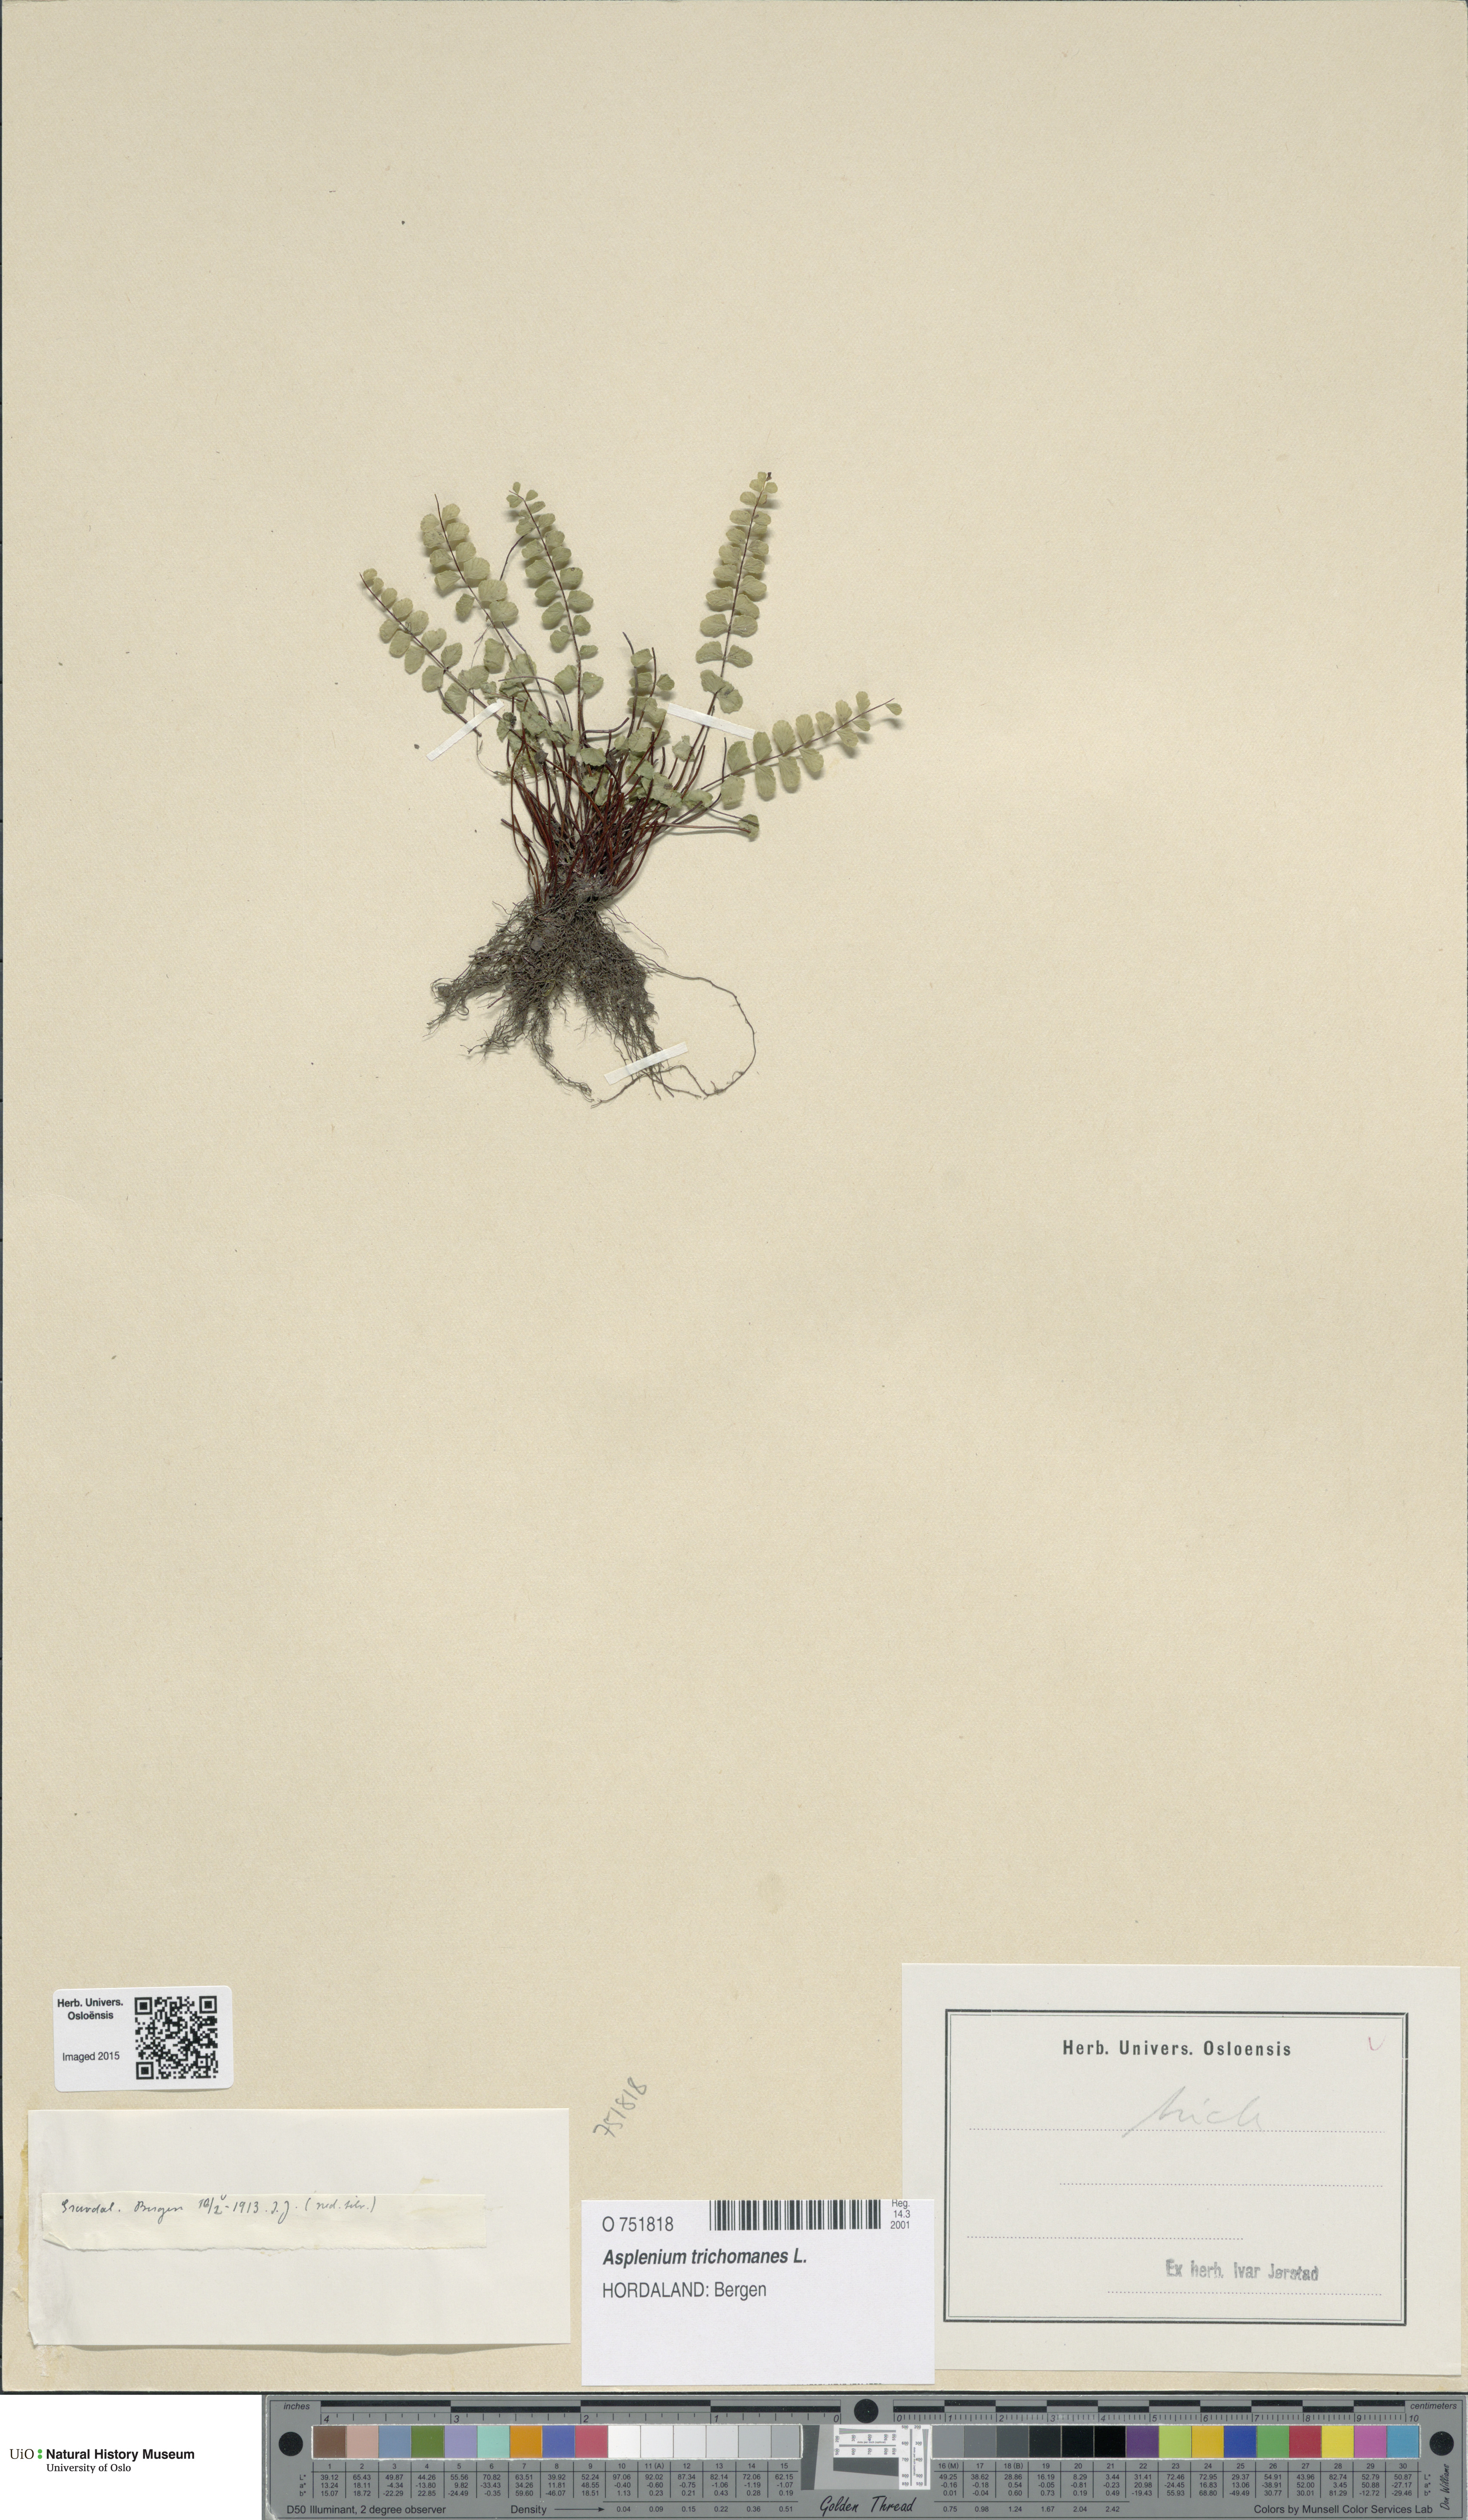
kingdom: Plantae
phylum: Tracheophyta
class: Polypodiopsida
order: Polypodiales
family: Aspleniaceae
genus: Asplenium
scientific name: Asplenium trichomanes
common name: Maidenhair spleenwort
